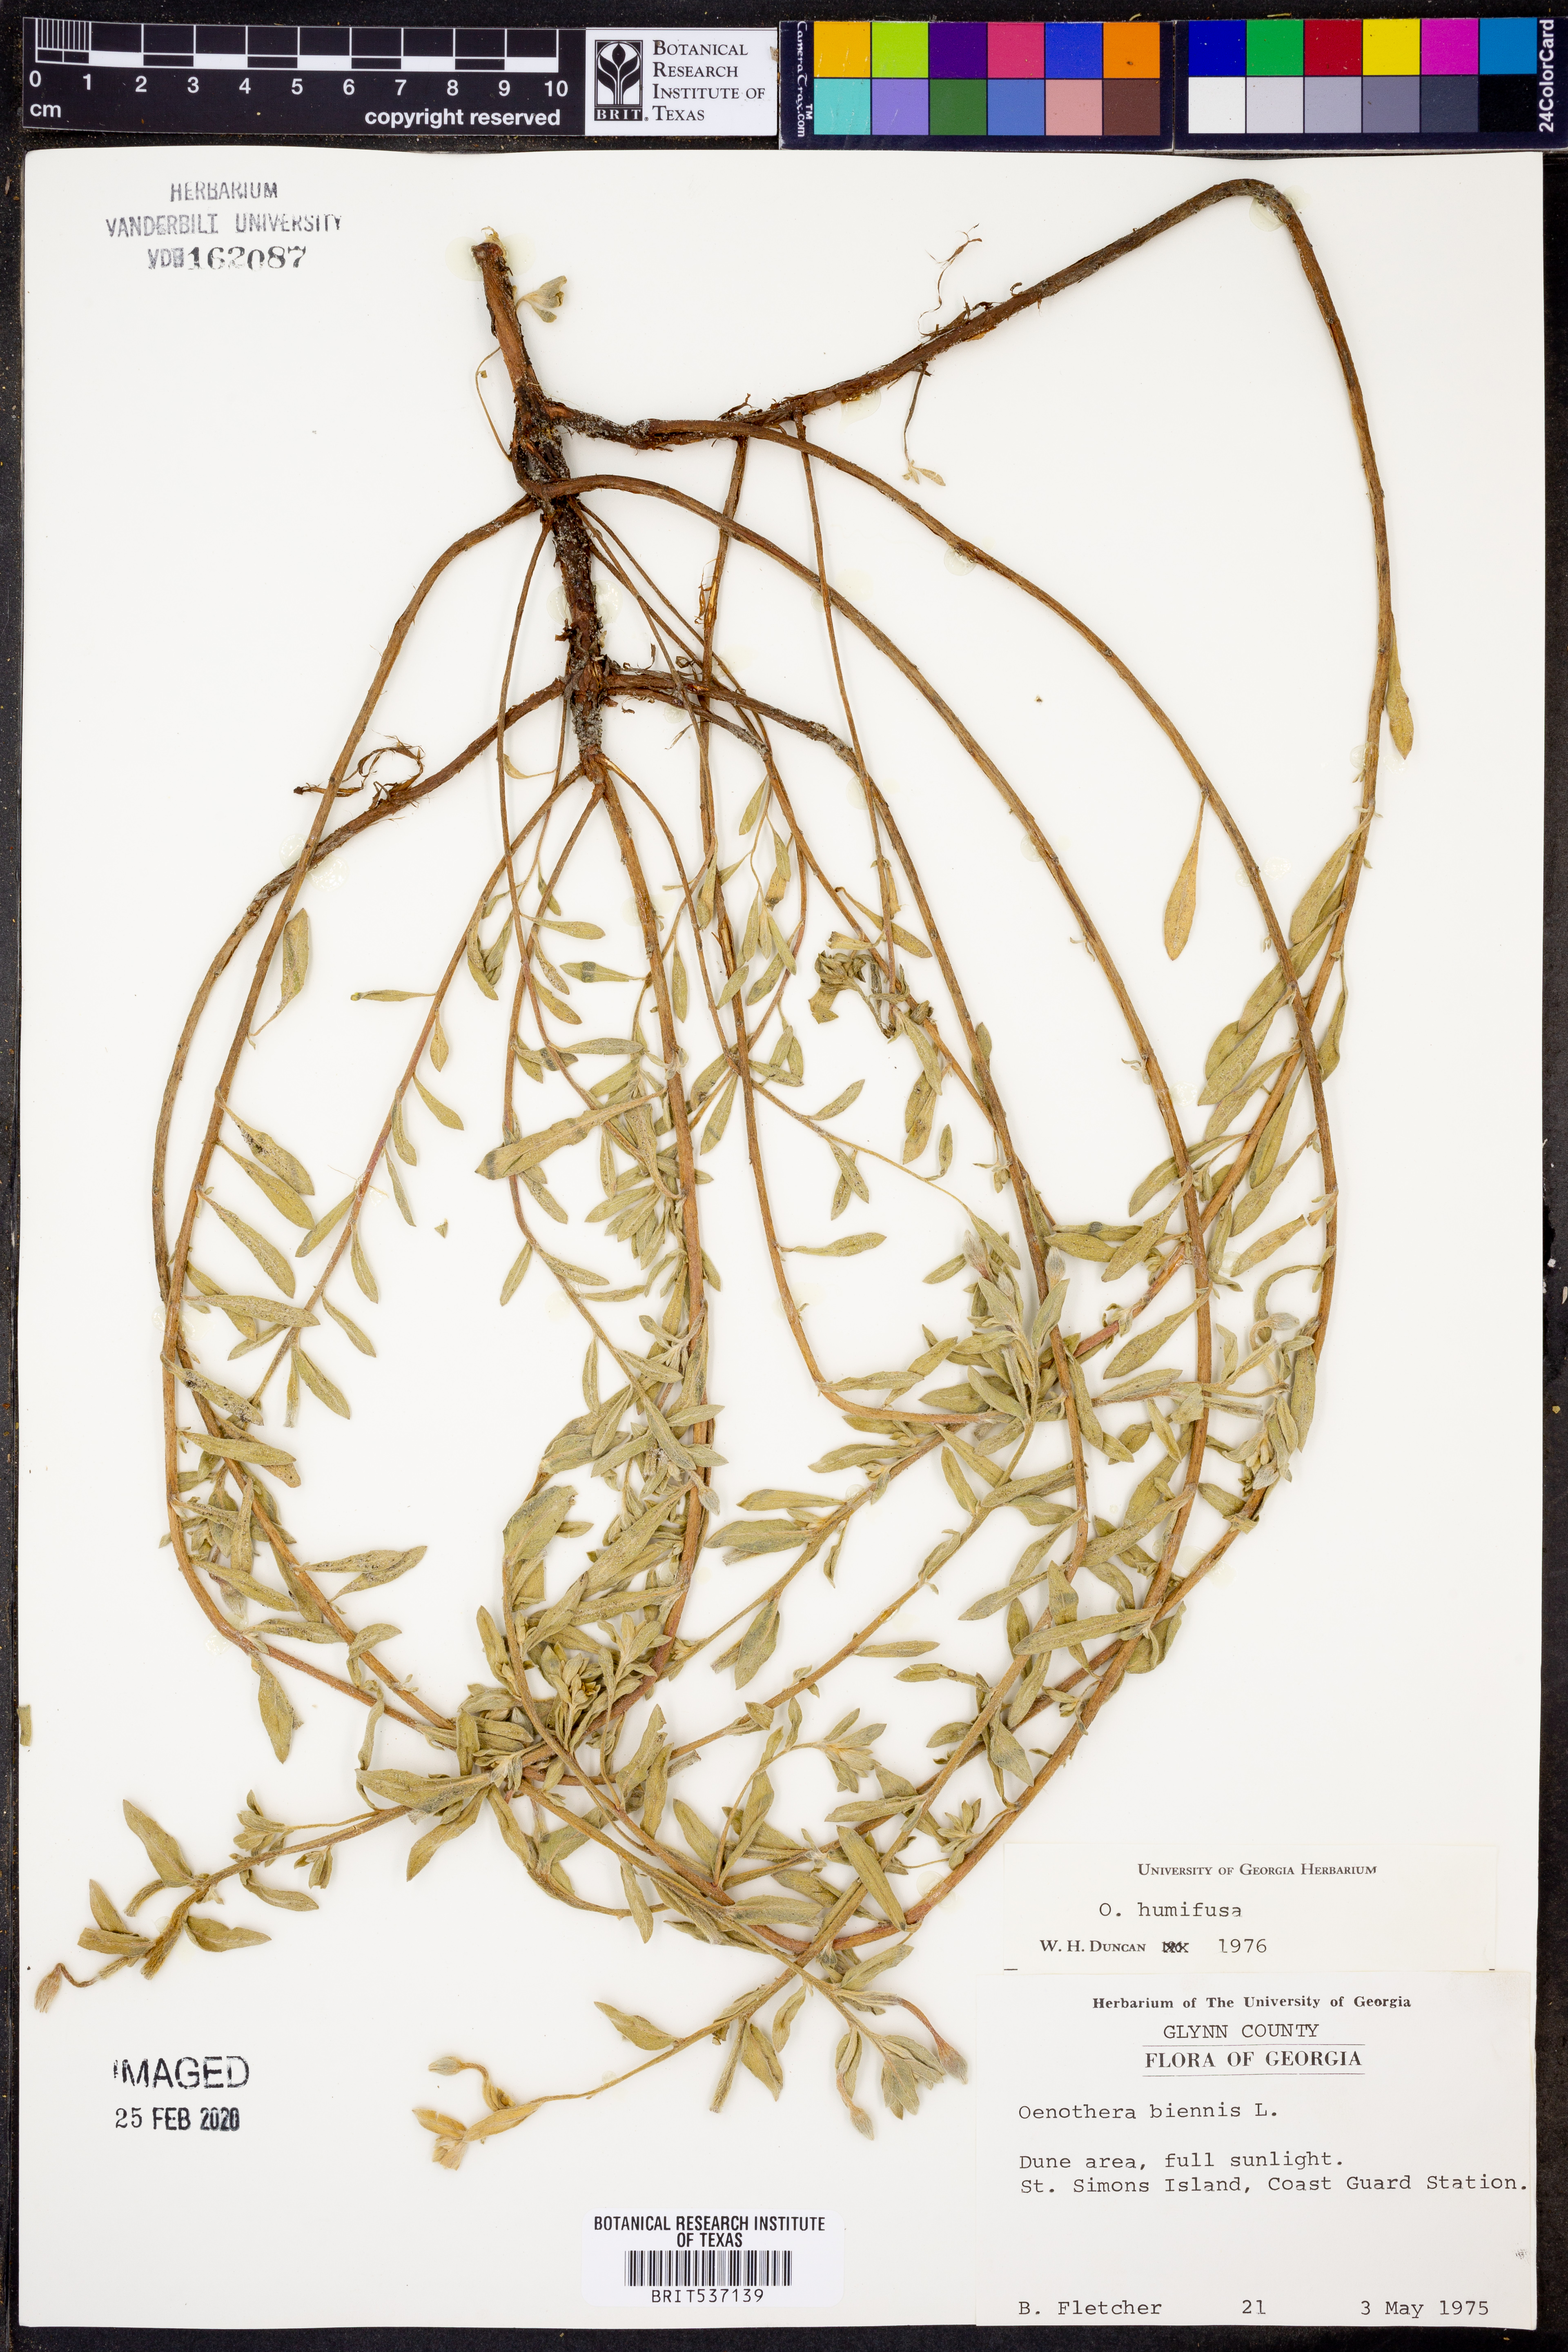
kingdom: Plantae
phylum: Tracheophyta
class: Magnoliopsida
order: Myrtales
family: Onagraceae
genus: Oenothera
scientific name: Oenothera humifusa
